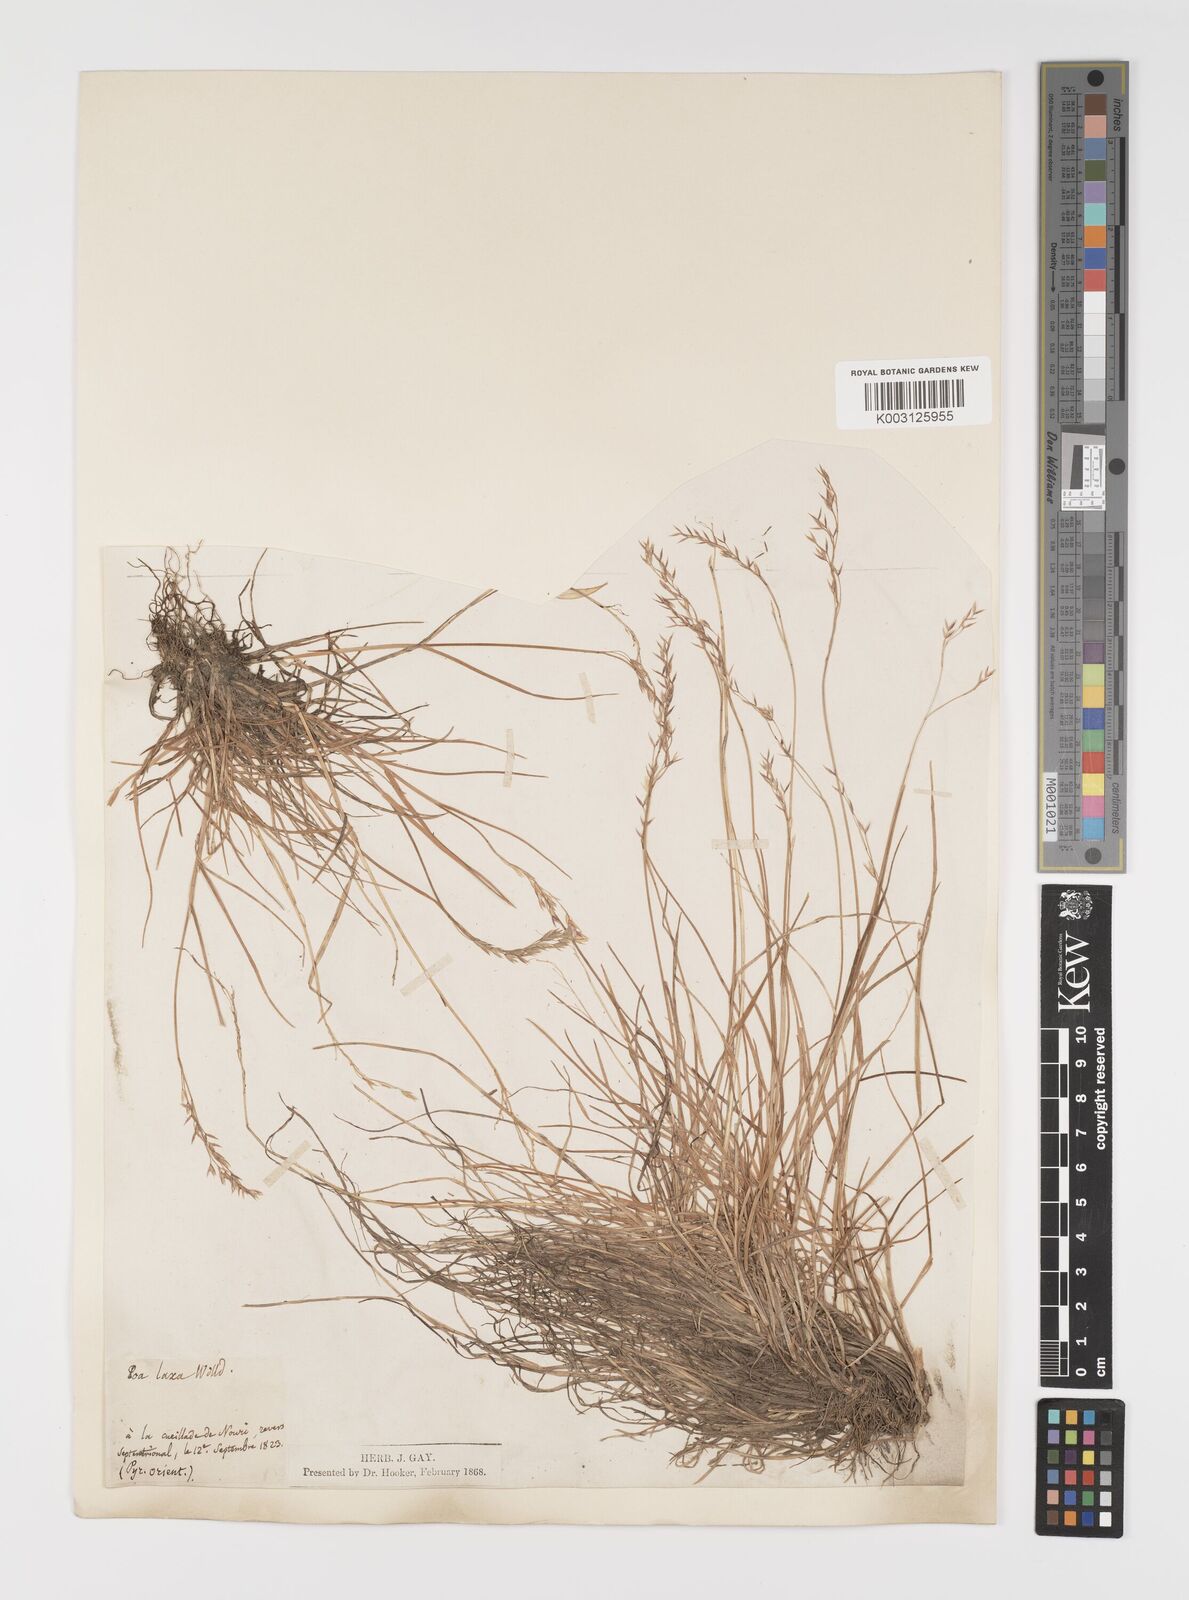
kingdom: Plantae
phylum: Tracheophyta
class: Liliopsida
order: Poales
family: Poaceae
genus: Poa
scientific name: Poa laxa
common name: Lax bluegrass
